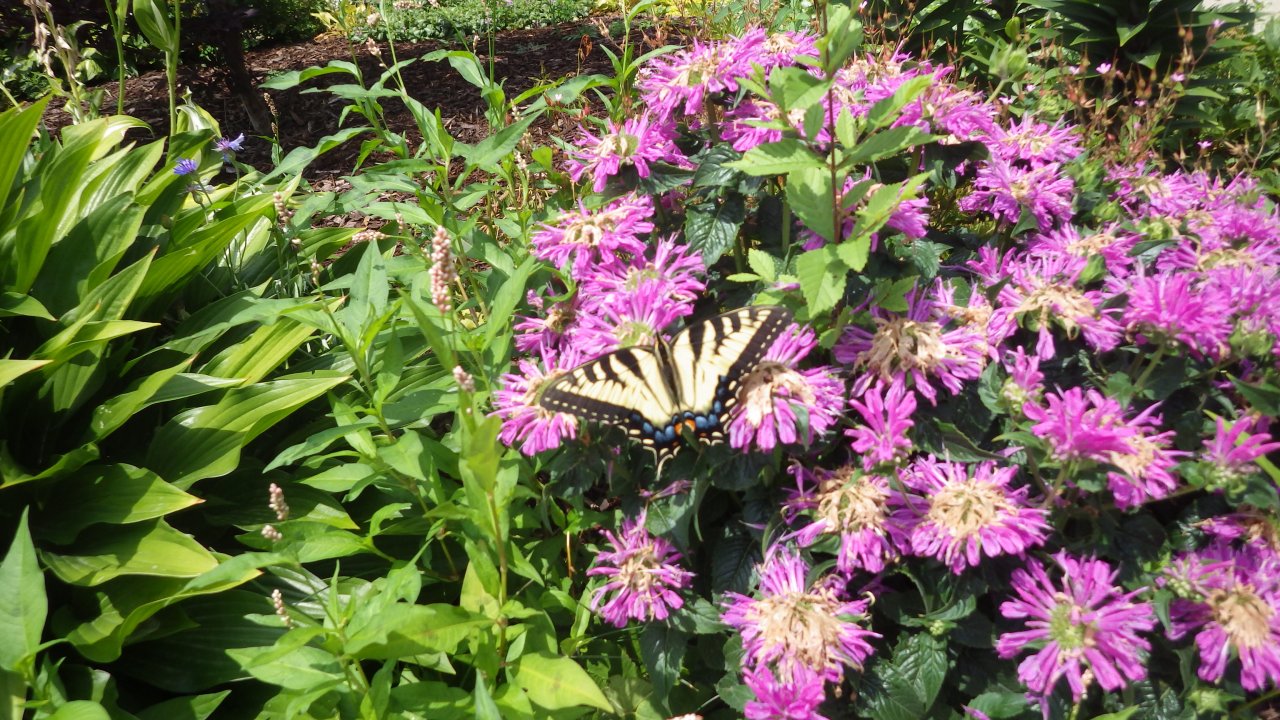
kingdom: Animalia
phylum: Arthropoda
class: Insecta
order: Lepidoptera
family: Papilionidae
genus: Pterourus
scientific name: Pterourus glaucus
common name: Eastern Tiger Swallowtail
